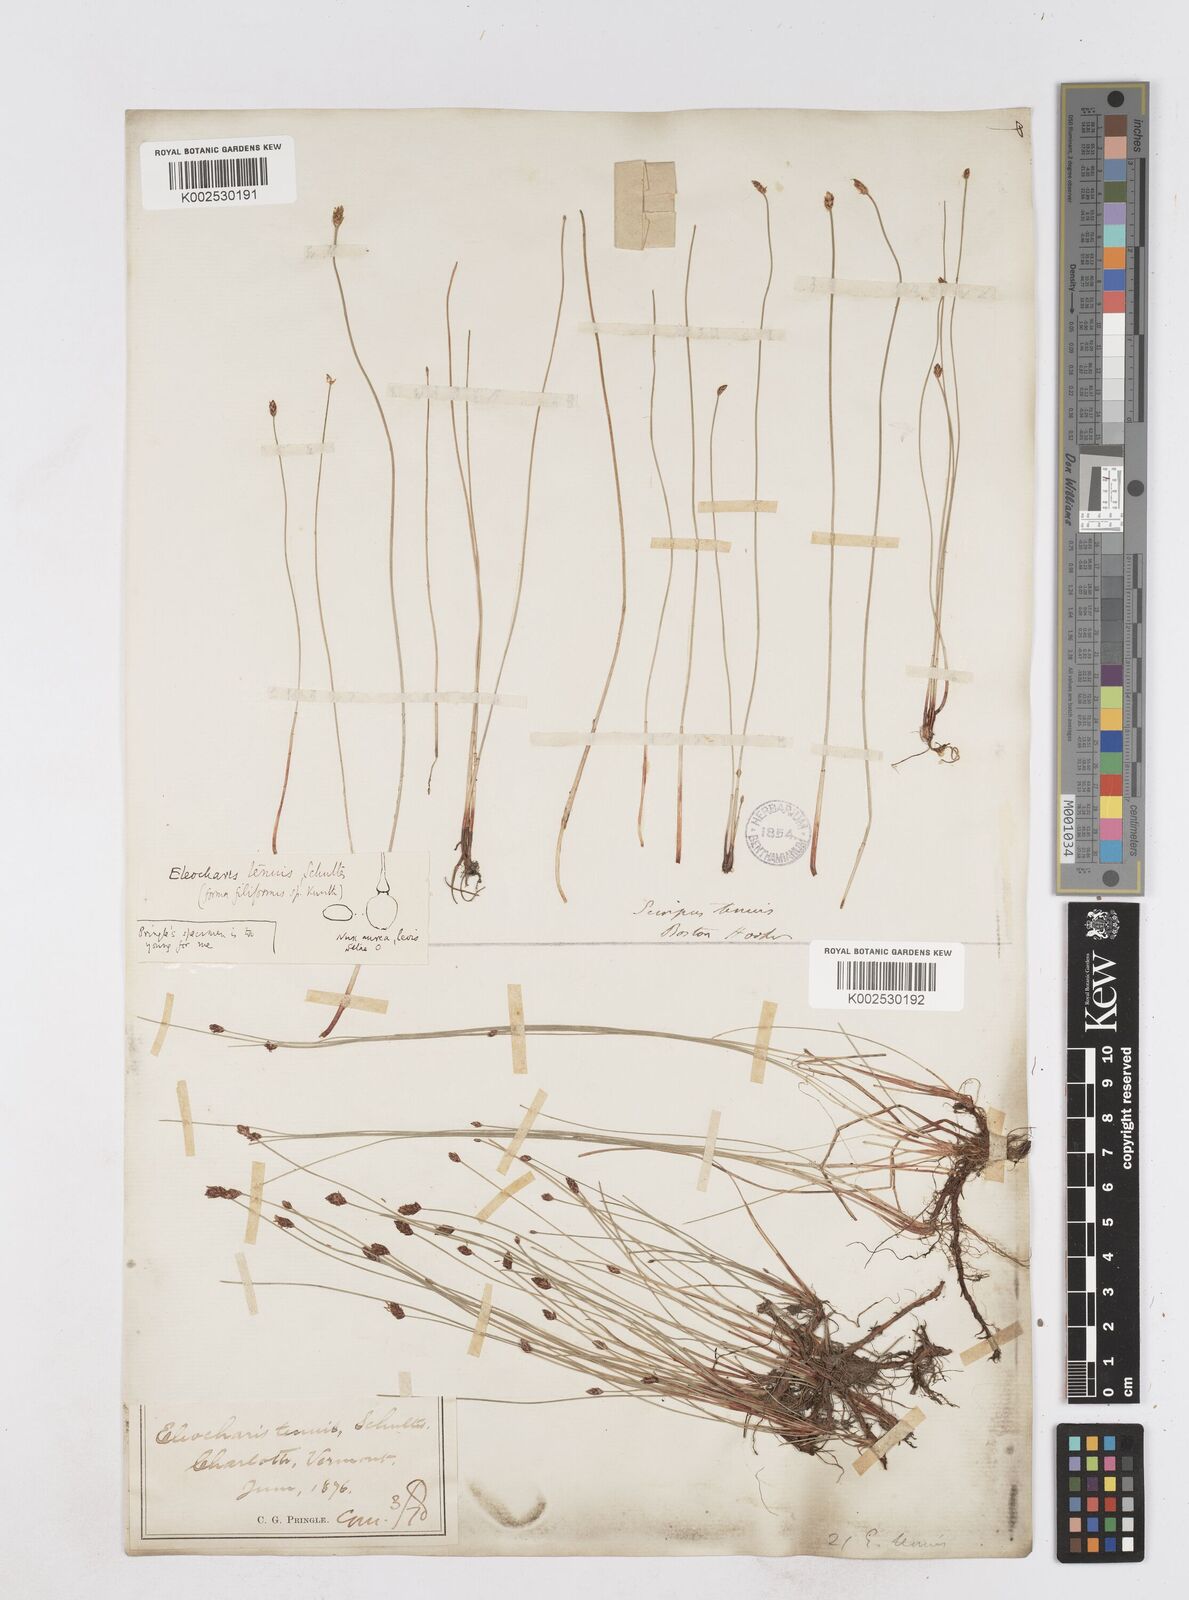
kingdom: Plantae
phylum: Tracheophyta
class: Liliopsida
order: Poales
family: Cyperaceae
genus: Eleocharis
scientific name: Eleocharis tenuis
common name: Dog's hair
